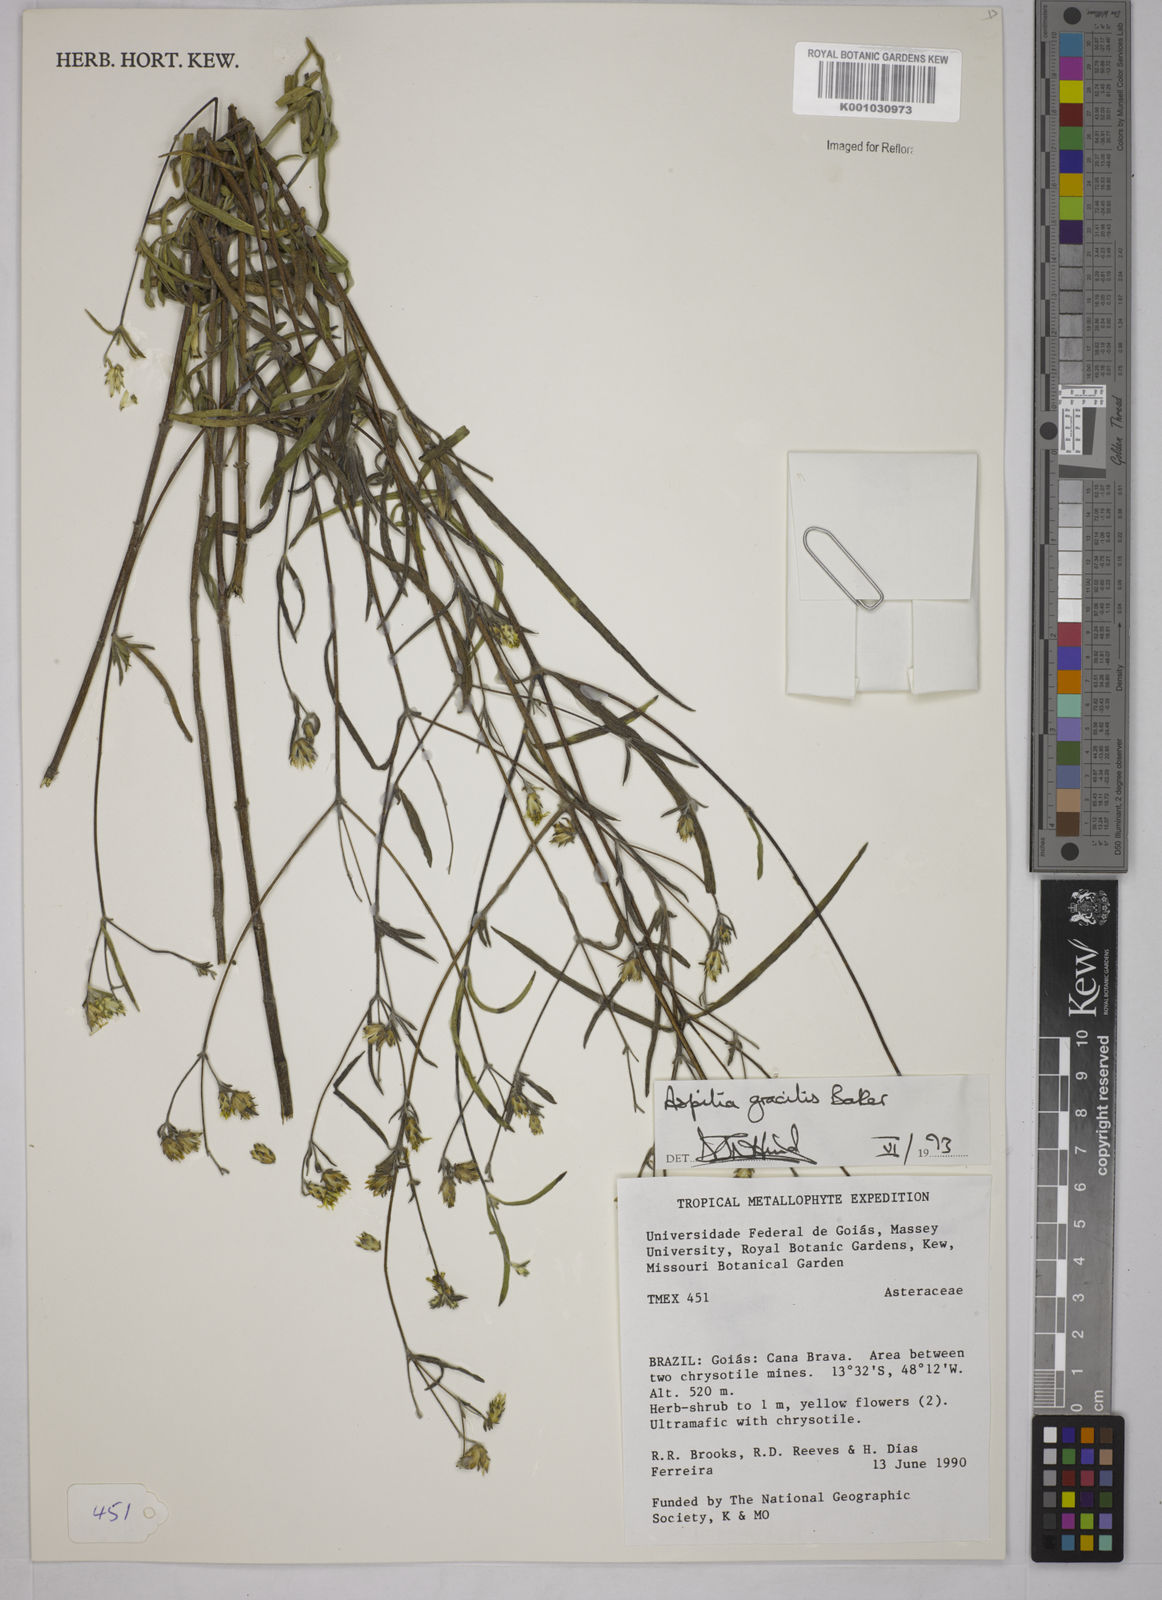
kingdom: Plantae
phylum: Tracheophyta
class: Magnoliopsida
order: Asterales
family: Asteraceae
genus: Wedelia
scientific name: Wedelia floribunda
